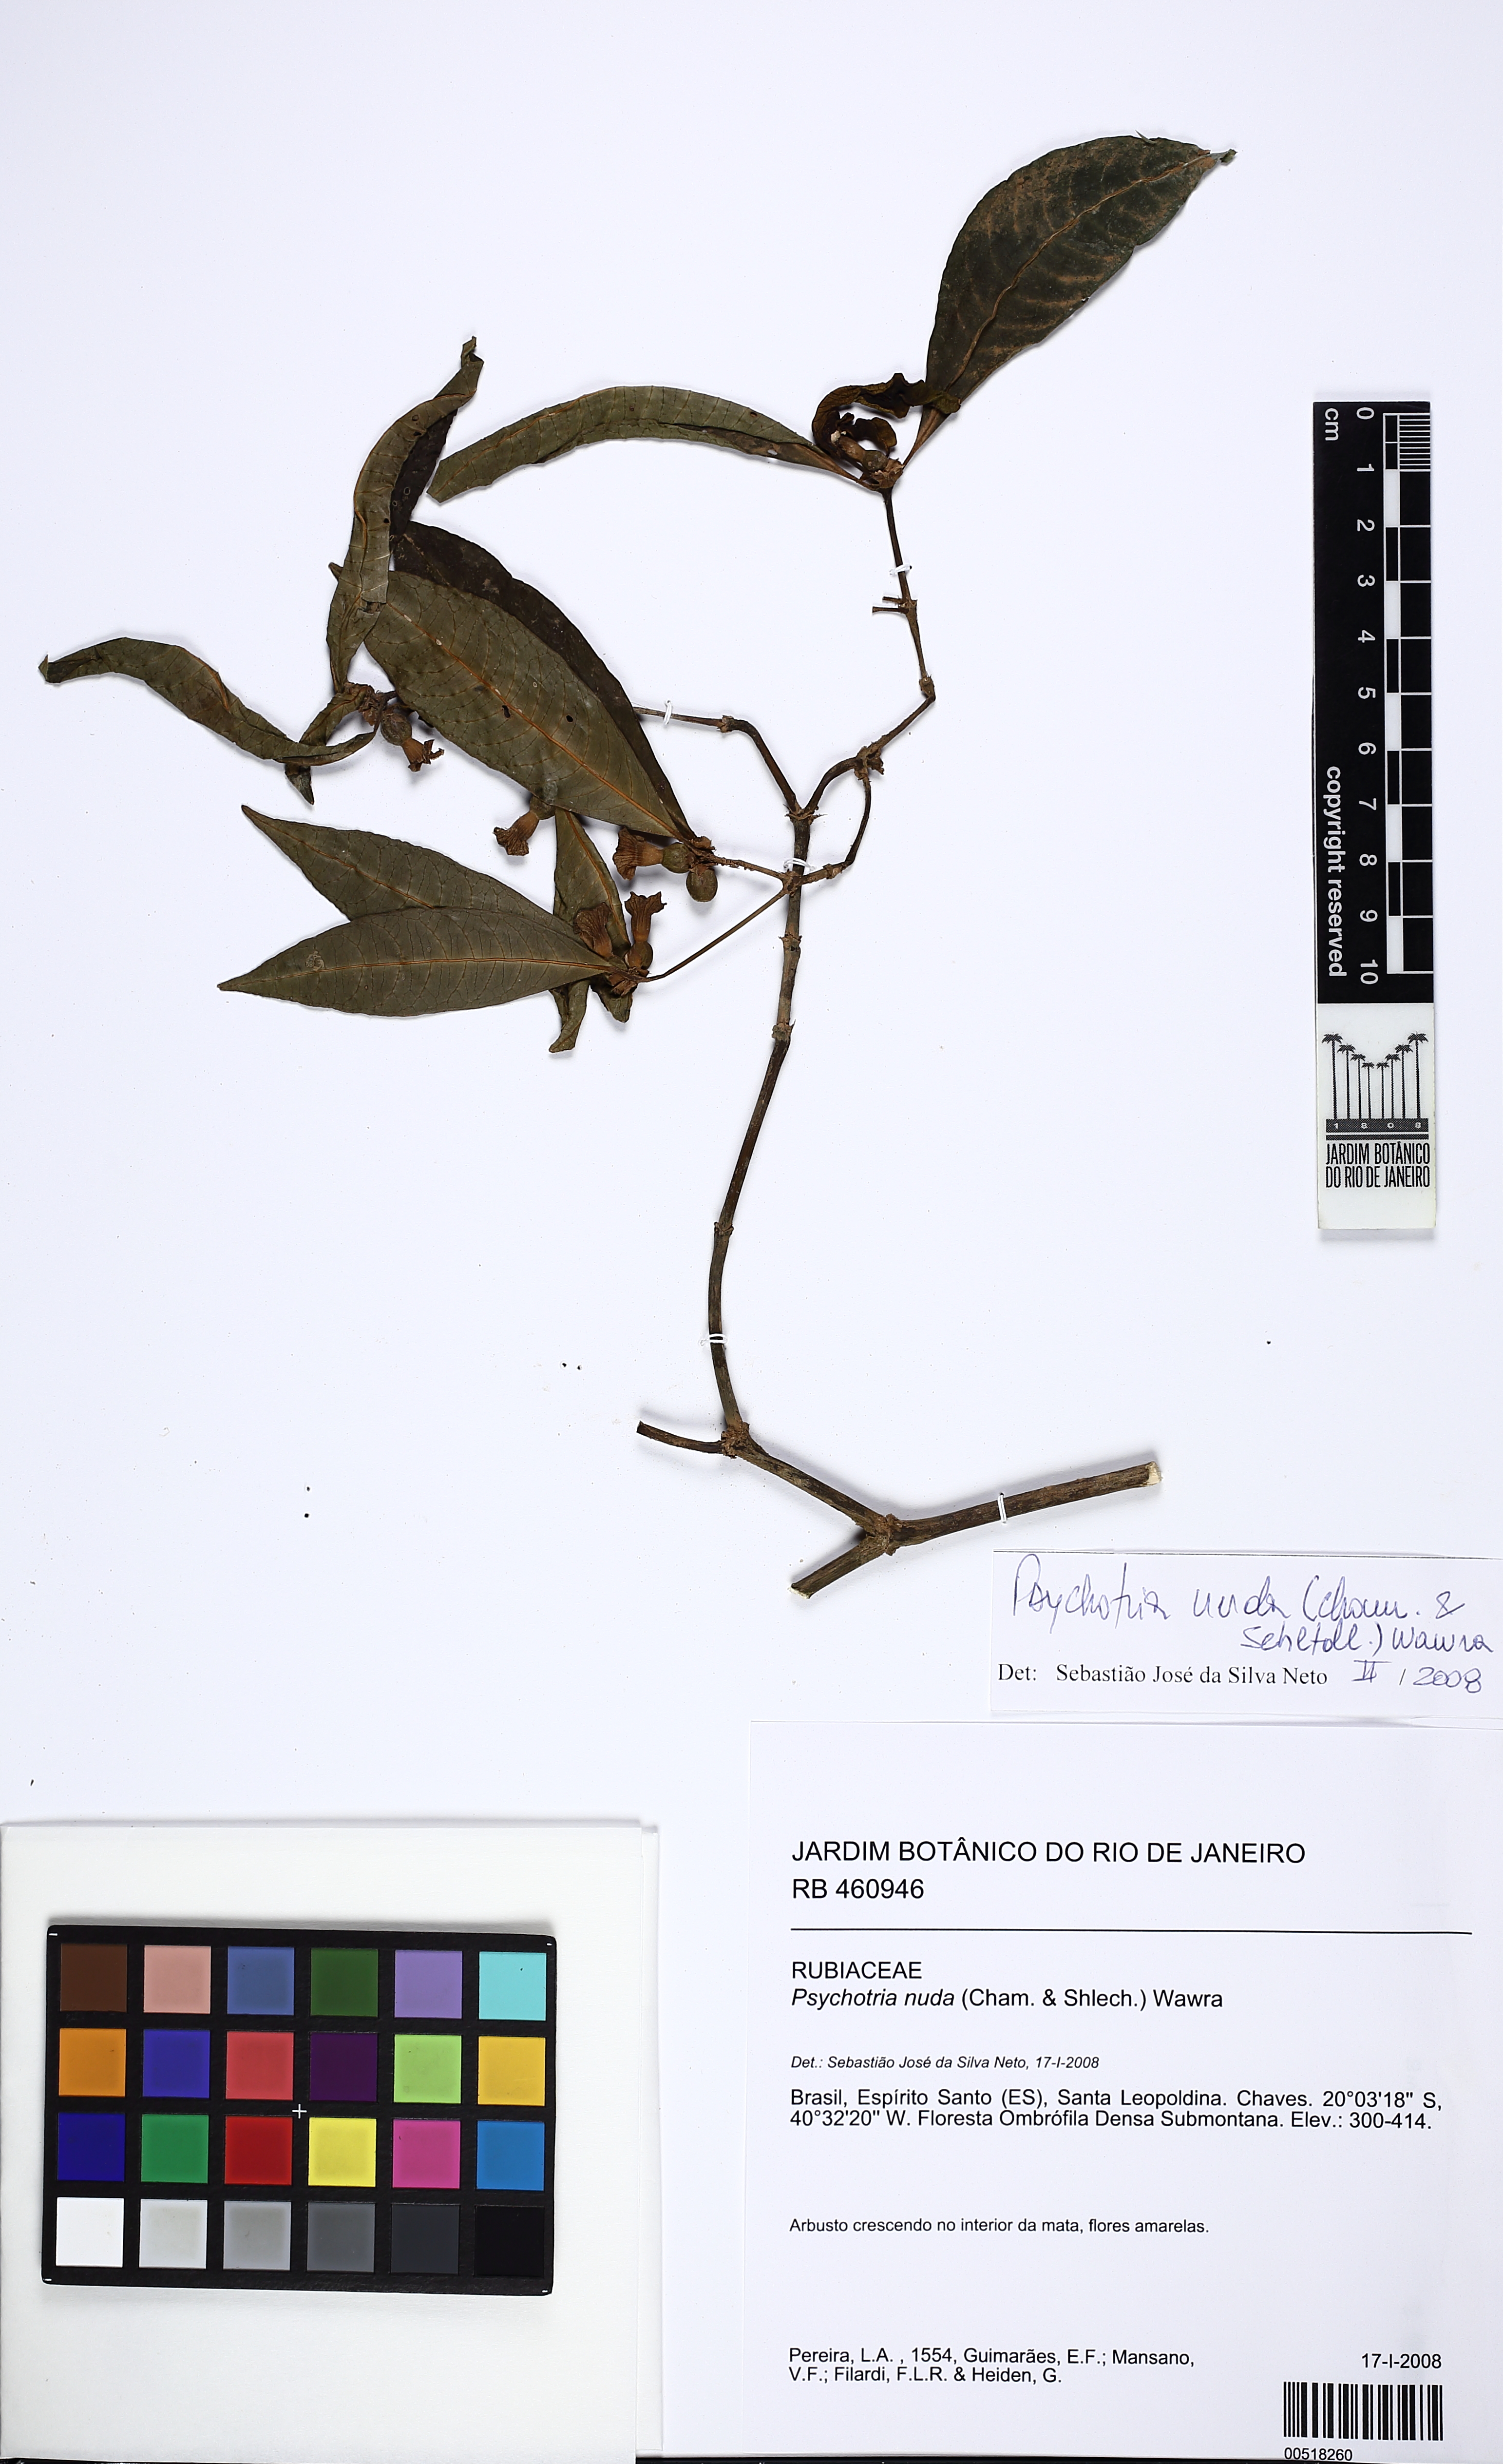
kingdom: Plantae
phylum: Tracheophyta
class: Magnoliopsida
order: Gentianales
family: Rubiaceae
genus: Psychotria
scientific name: Psychotria nuda
